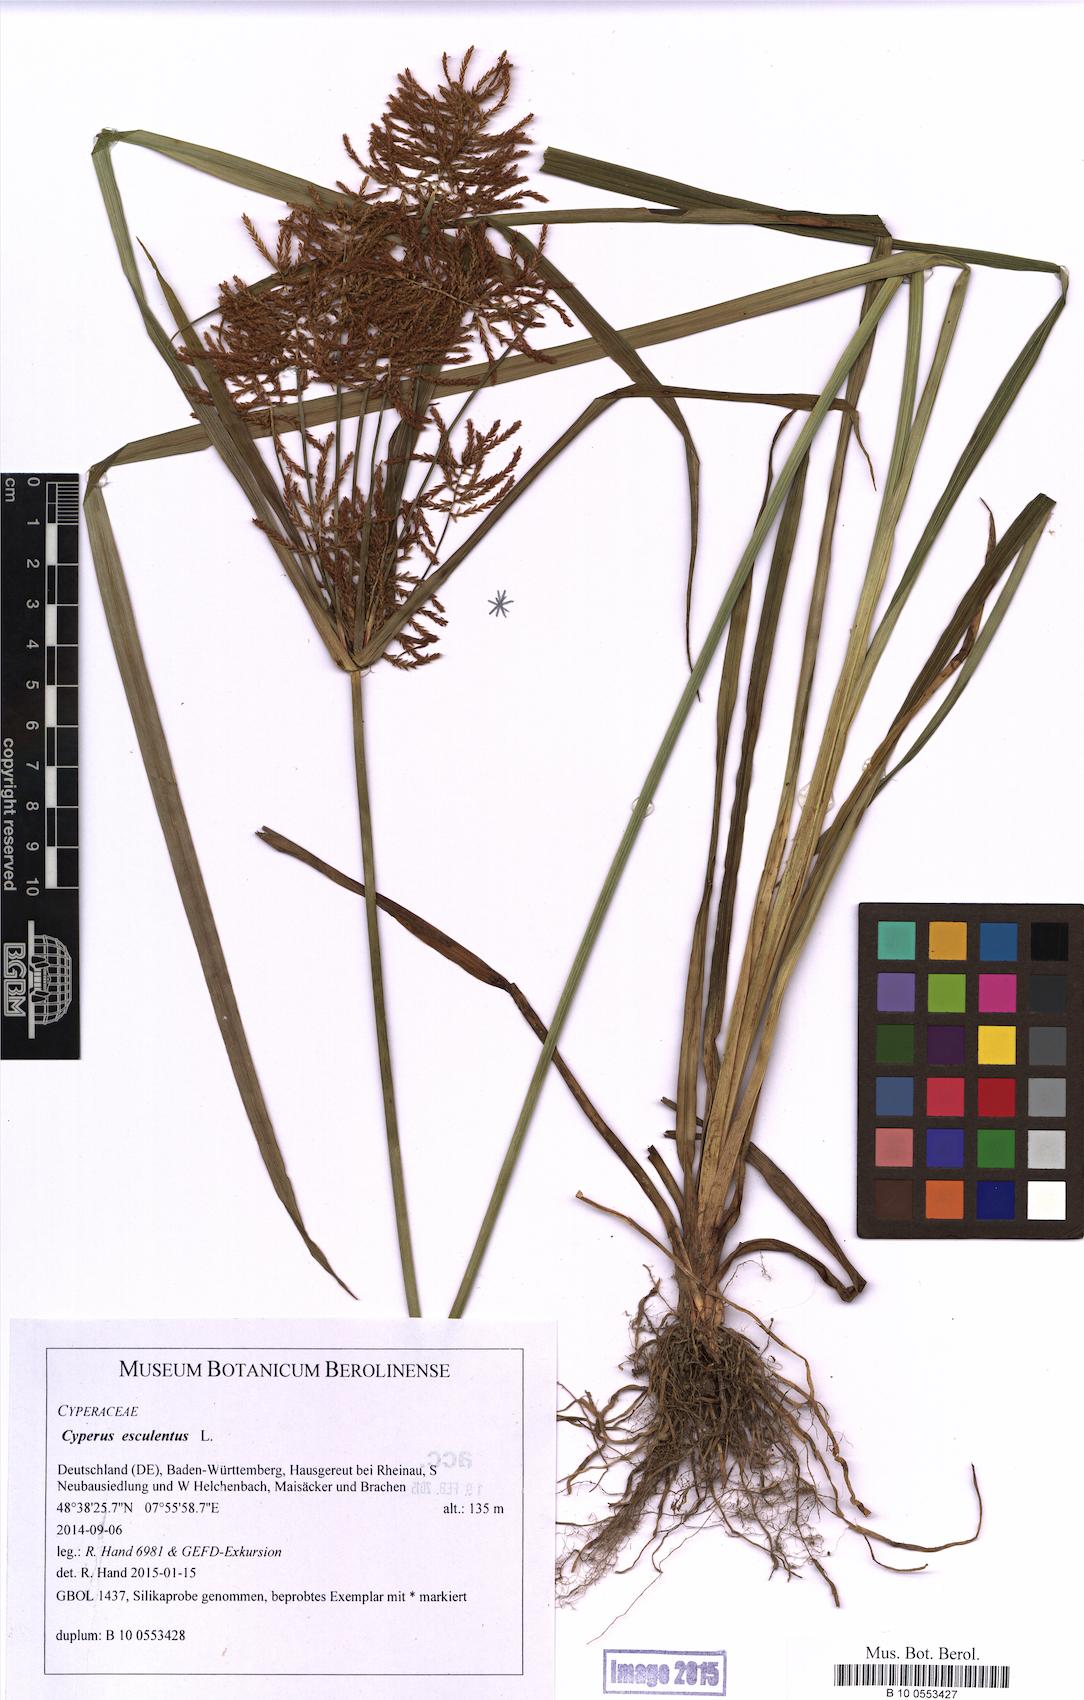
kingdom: Plantae
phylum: Tracheophyta
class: Liliopsida
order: Poales
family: Cyperaceae
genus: Cyperus
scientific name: Cyperus esculentus
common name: Yellow nutsedge
